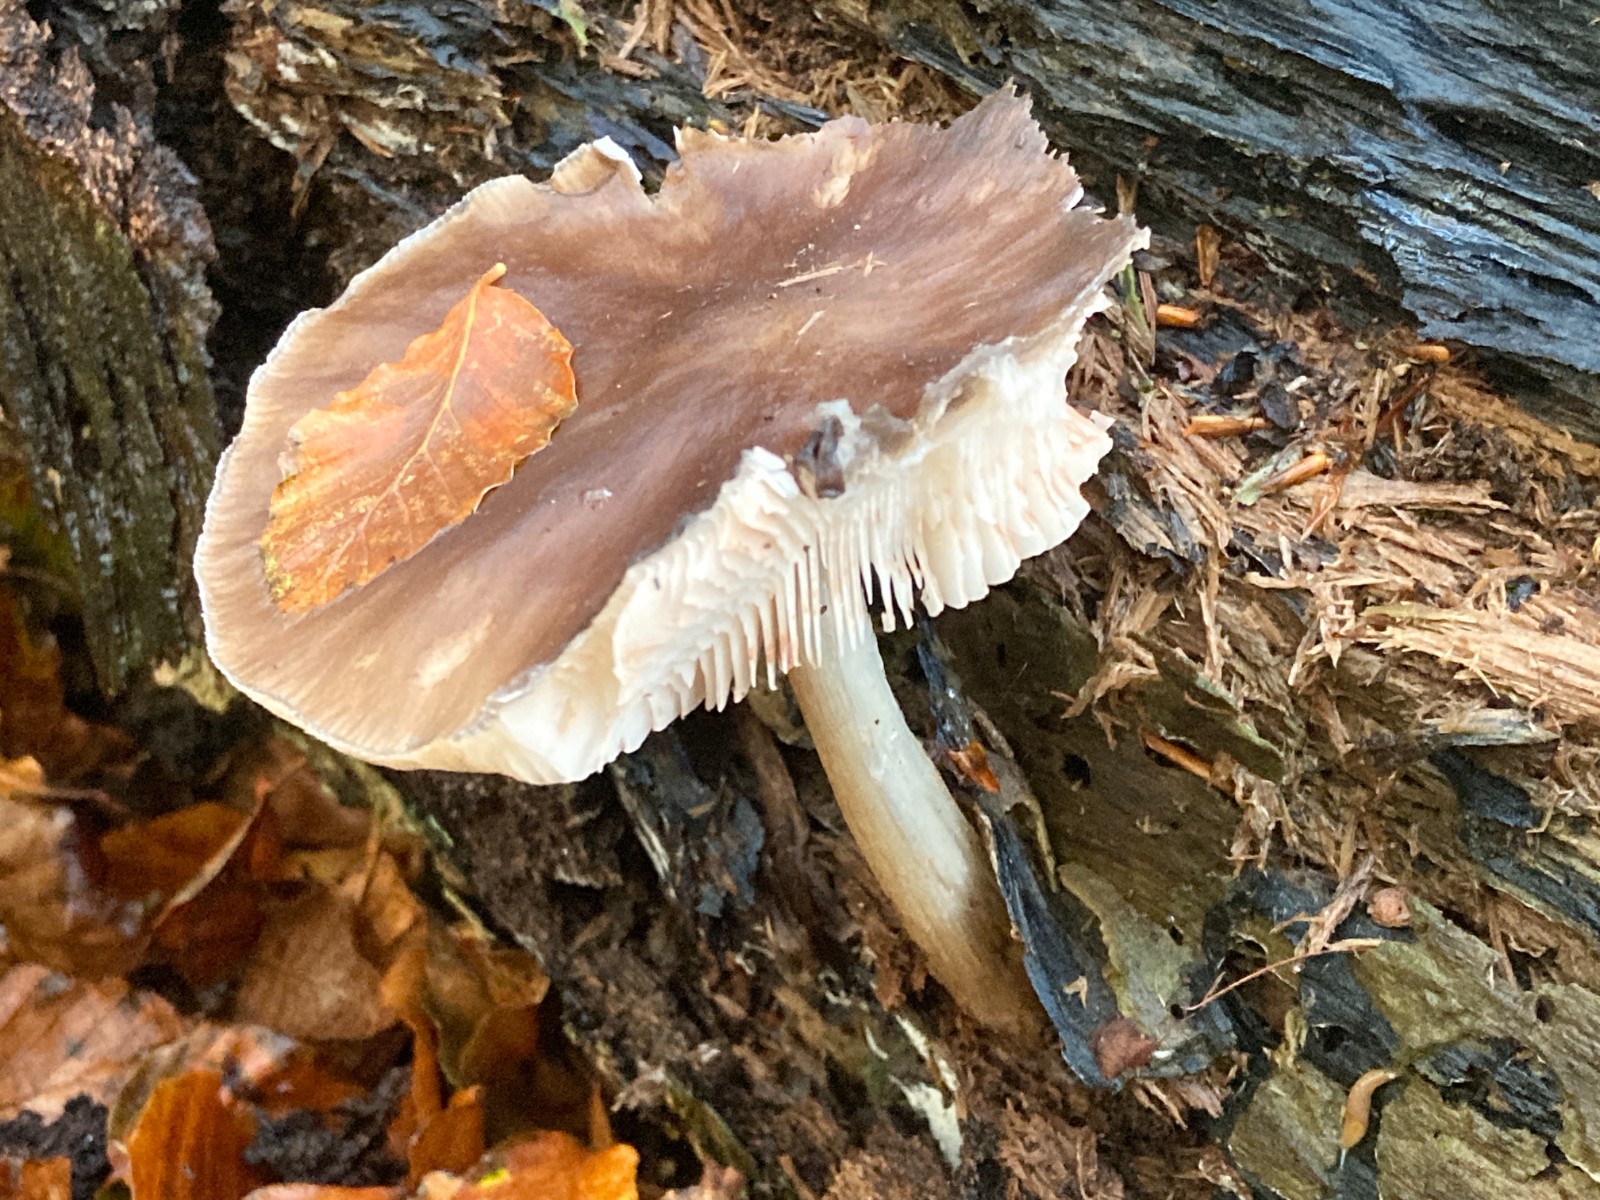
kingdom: Fungi
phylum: Basidiomycota
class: Agaricomycetes
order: Agaricales
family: Pluteaceae
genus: Pluteus
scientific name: Pluteus cervinus
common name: sodfarvet skærmhat
